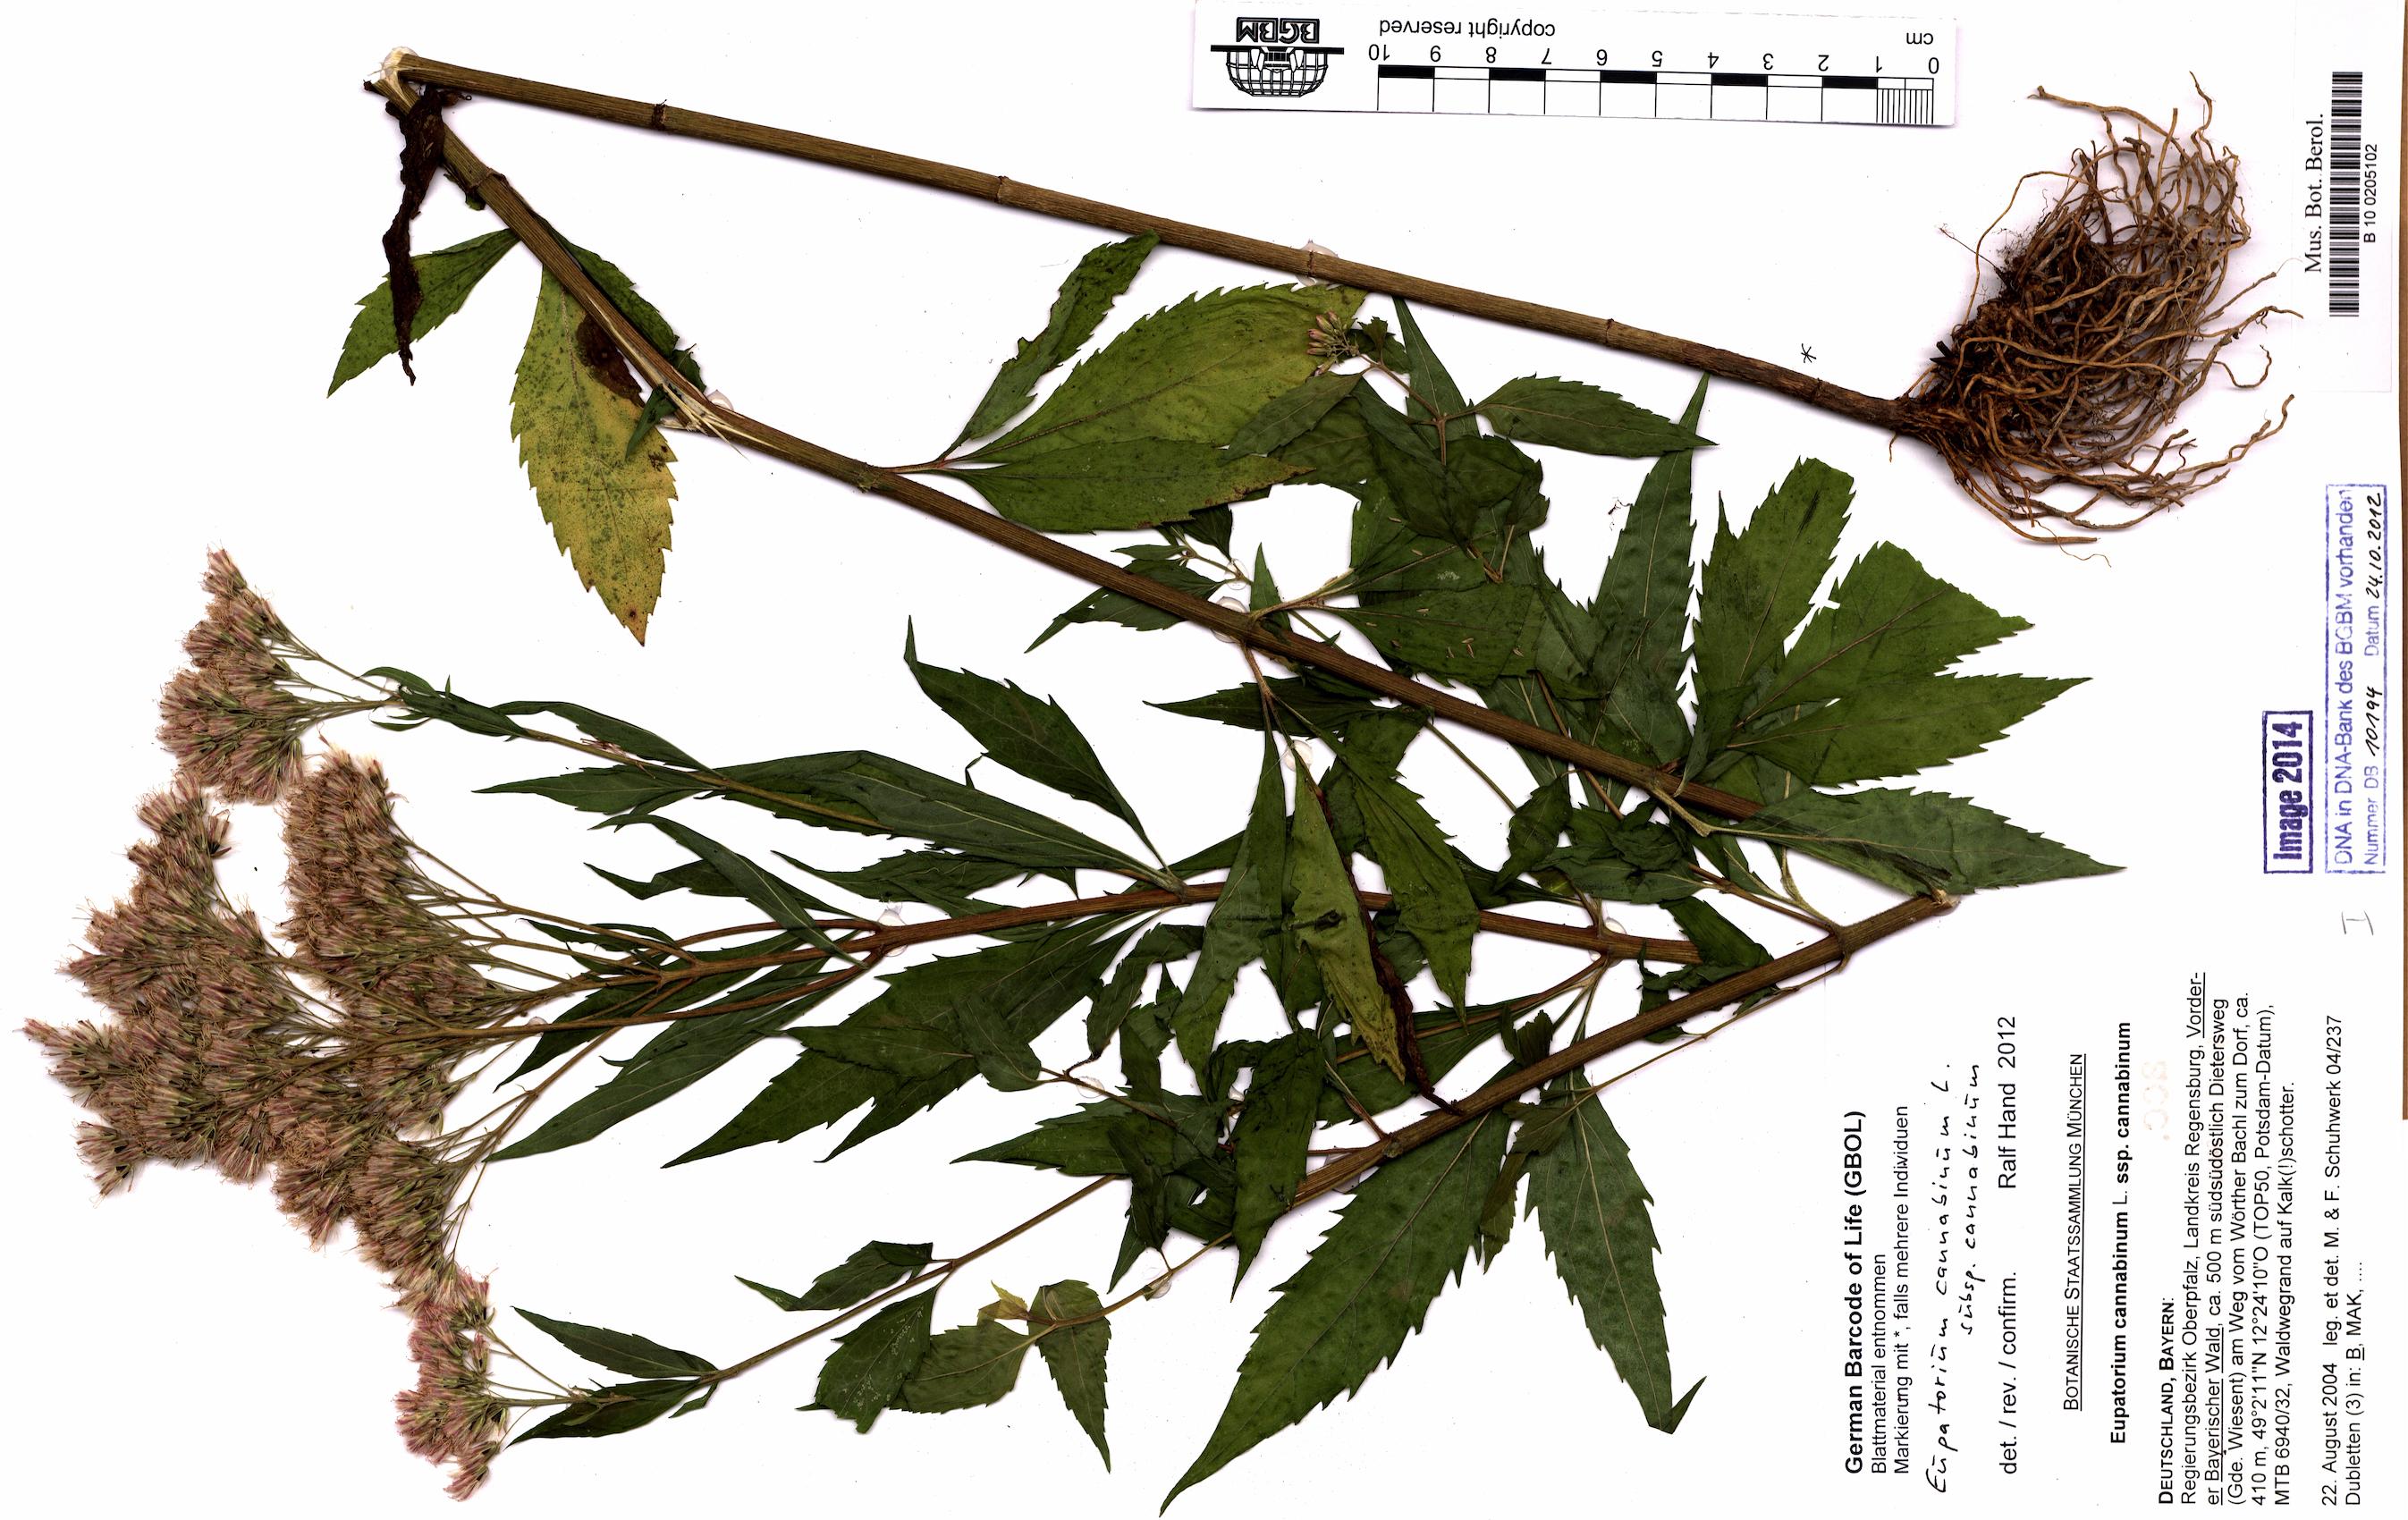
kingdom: Plantae
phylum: Tracheophyta
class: Magnoliopsida
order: Asterales
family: Asteraceae
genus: Eupatorium
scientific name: Eupatorium cannabinum
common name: Hemp-agrimony
